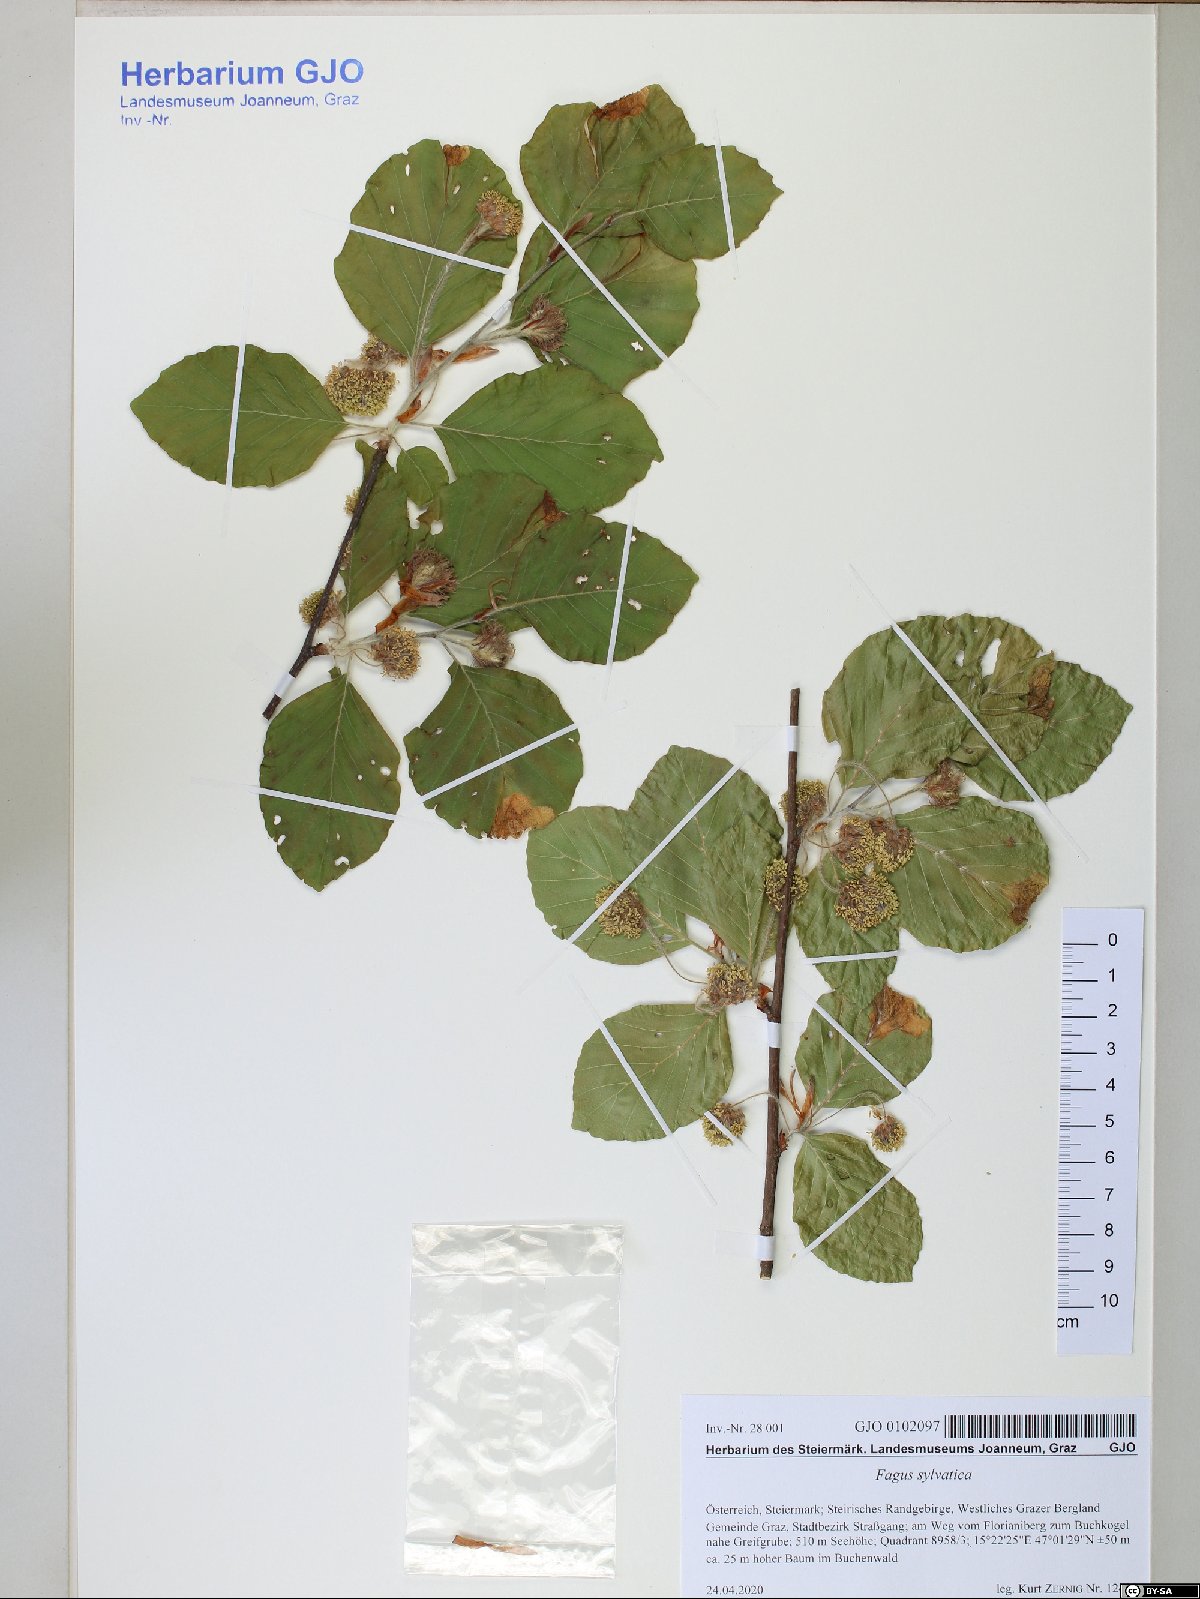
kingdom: Plantae
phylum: Tracheophyta
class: Magnoliopsida
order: Fagales
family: Fagaceae
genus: Fagus
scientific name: Fagus sylvatica
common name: Beech
